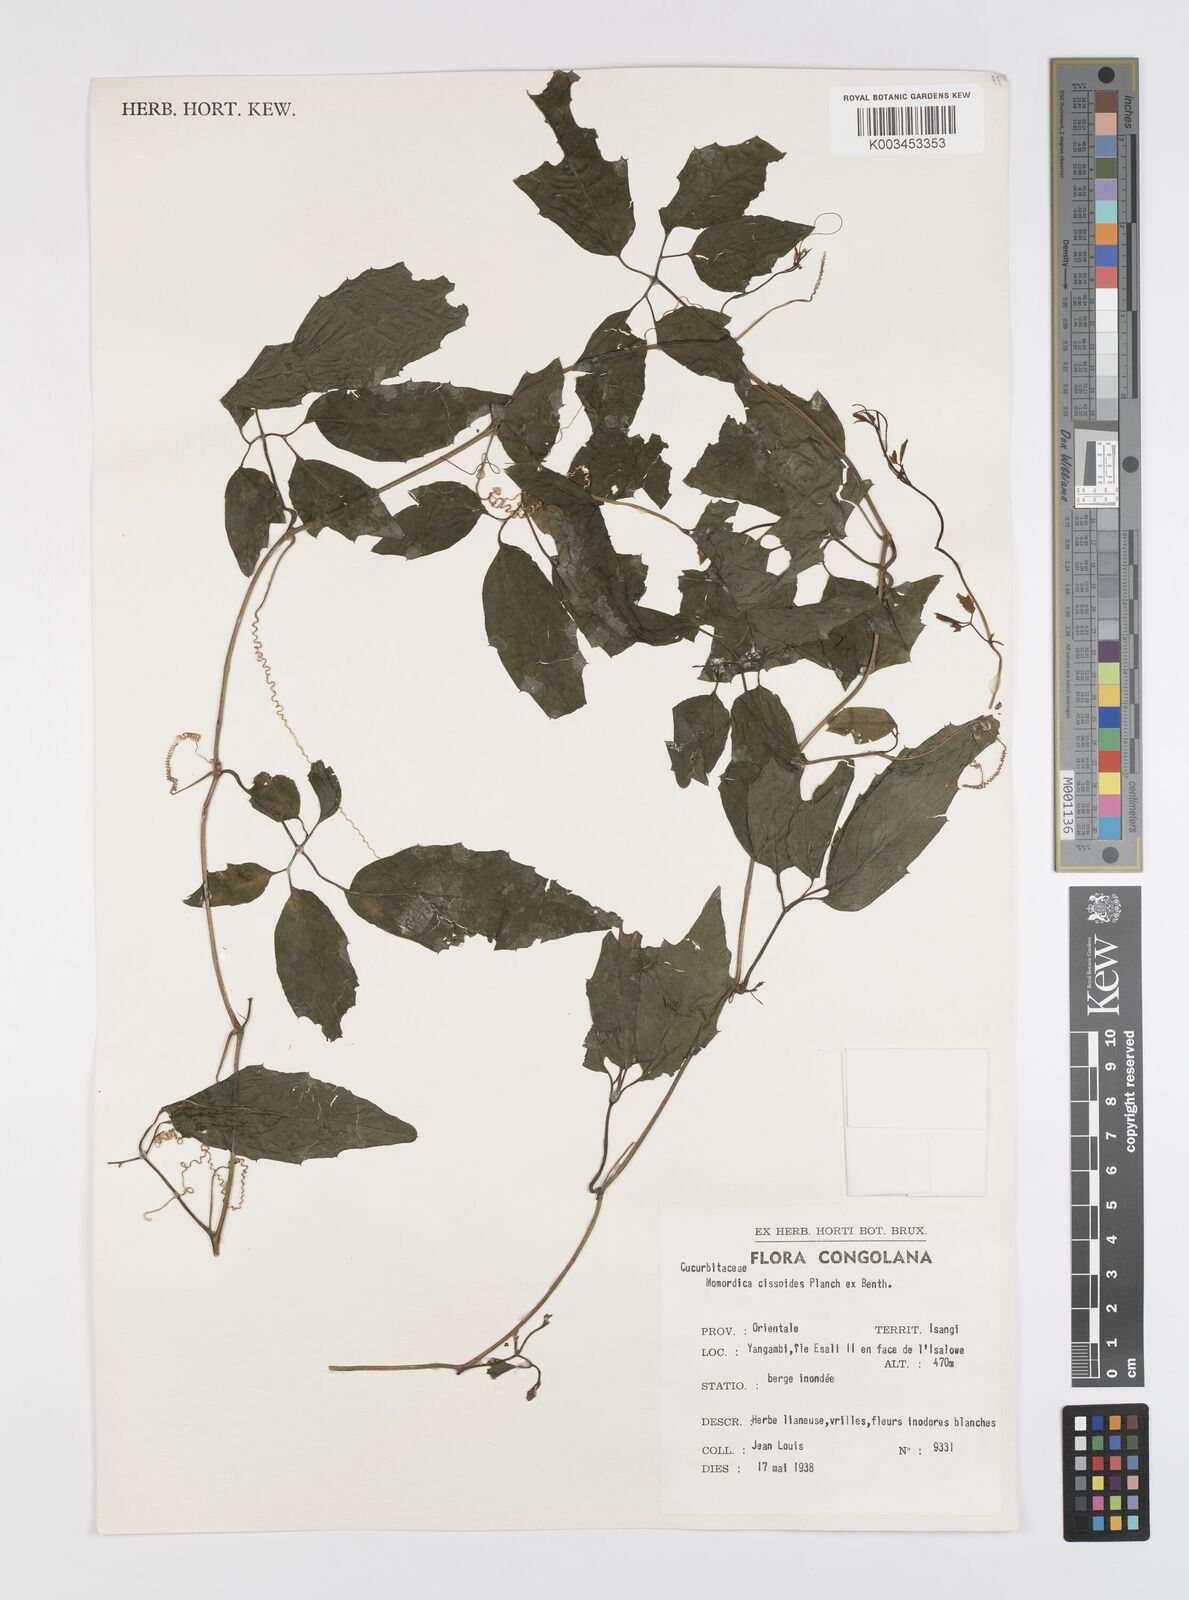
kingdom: Plantae
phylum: Tracheophyta
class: Magnoliopsida
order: Cucurbitales
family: Cucurbitaceae
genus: Momordica
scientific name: Momordica cissoides
